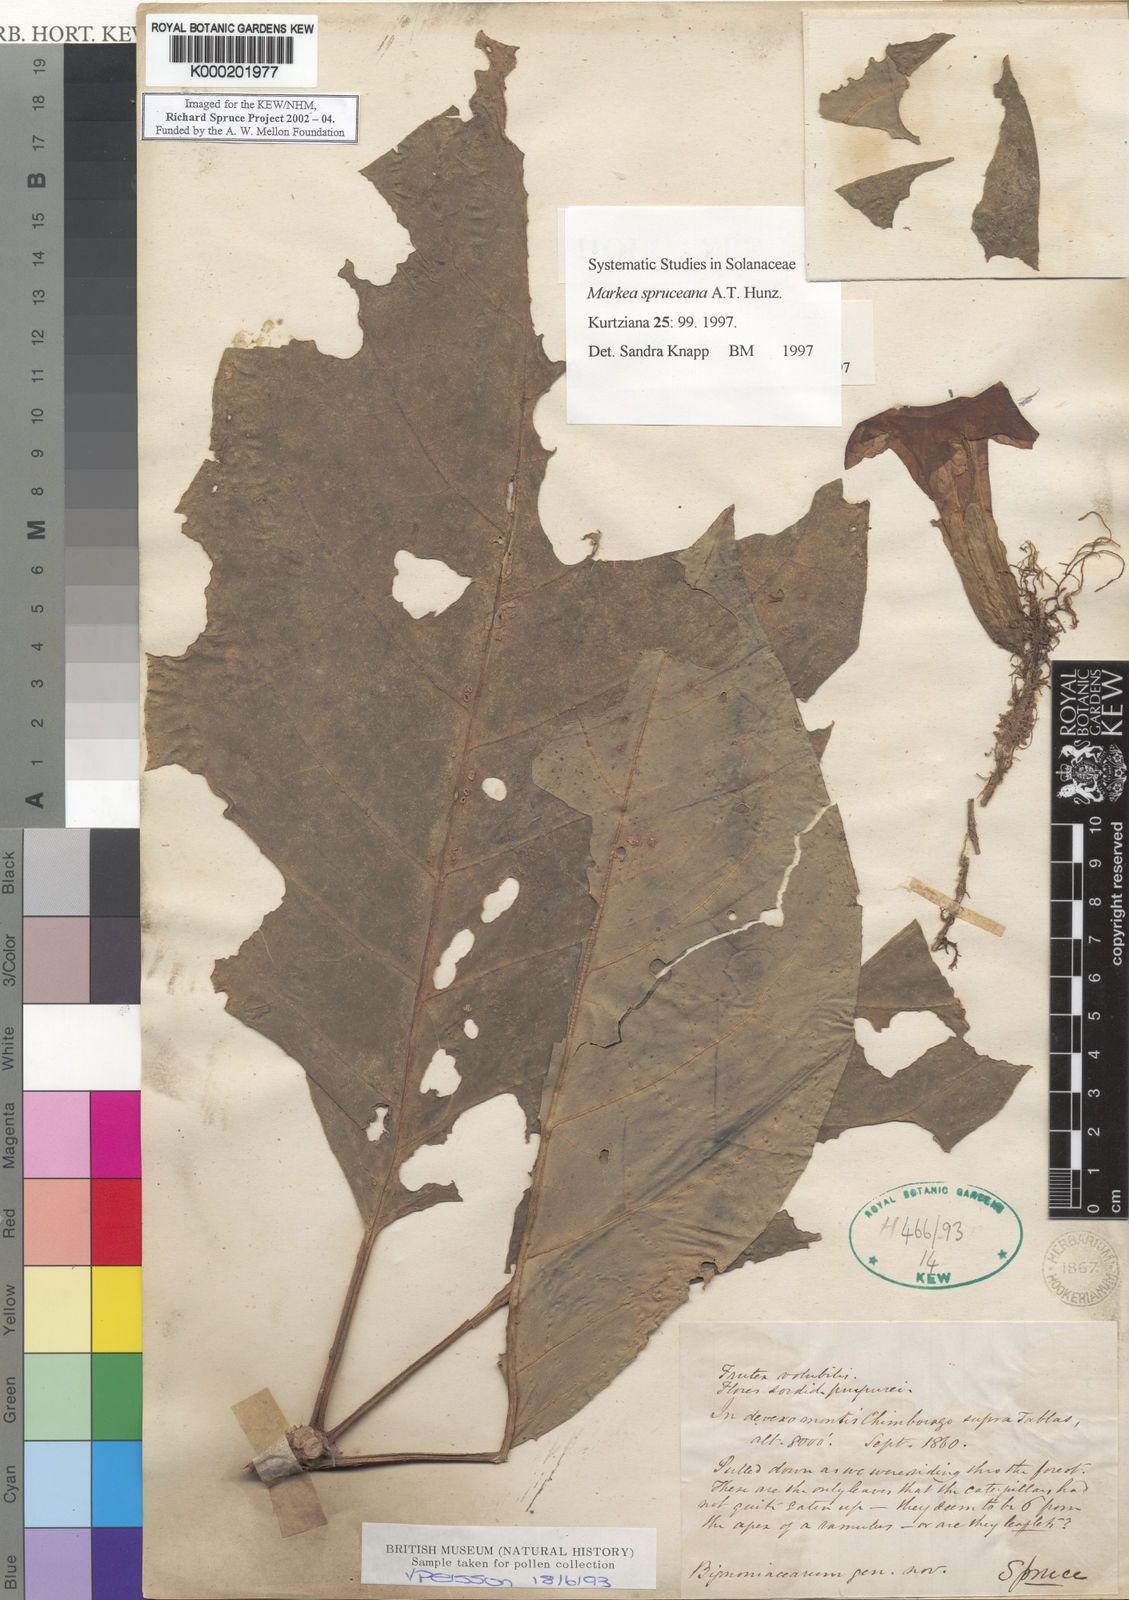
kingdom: Plantae
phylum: Tracheophyta
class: Magnoliopsida
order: Solanales
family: Solanaceae
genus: Markea
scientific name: Markea spruceana
